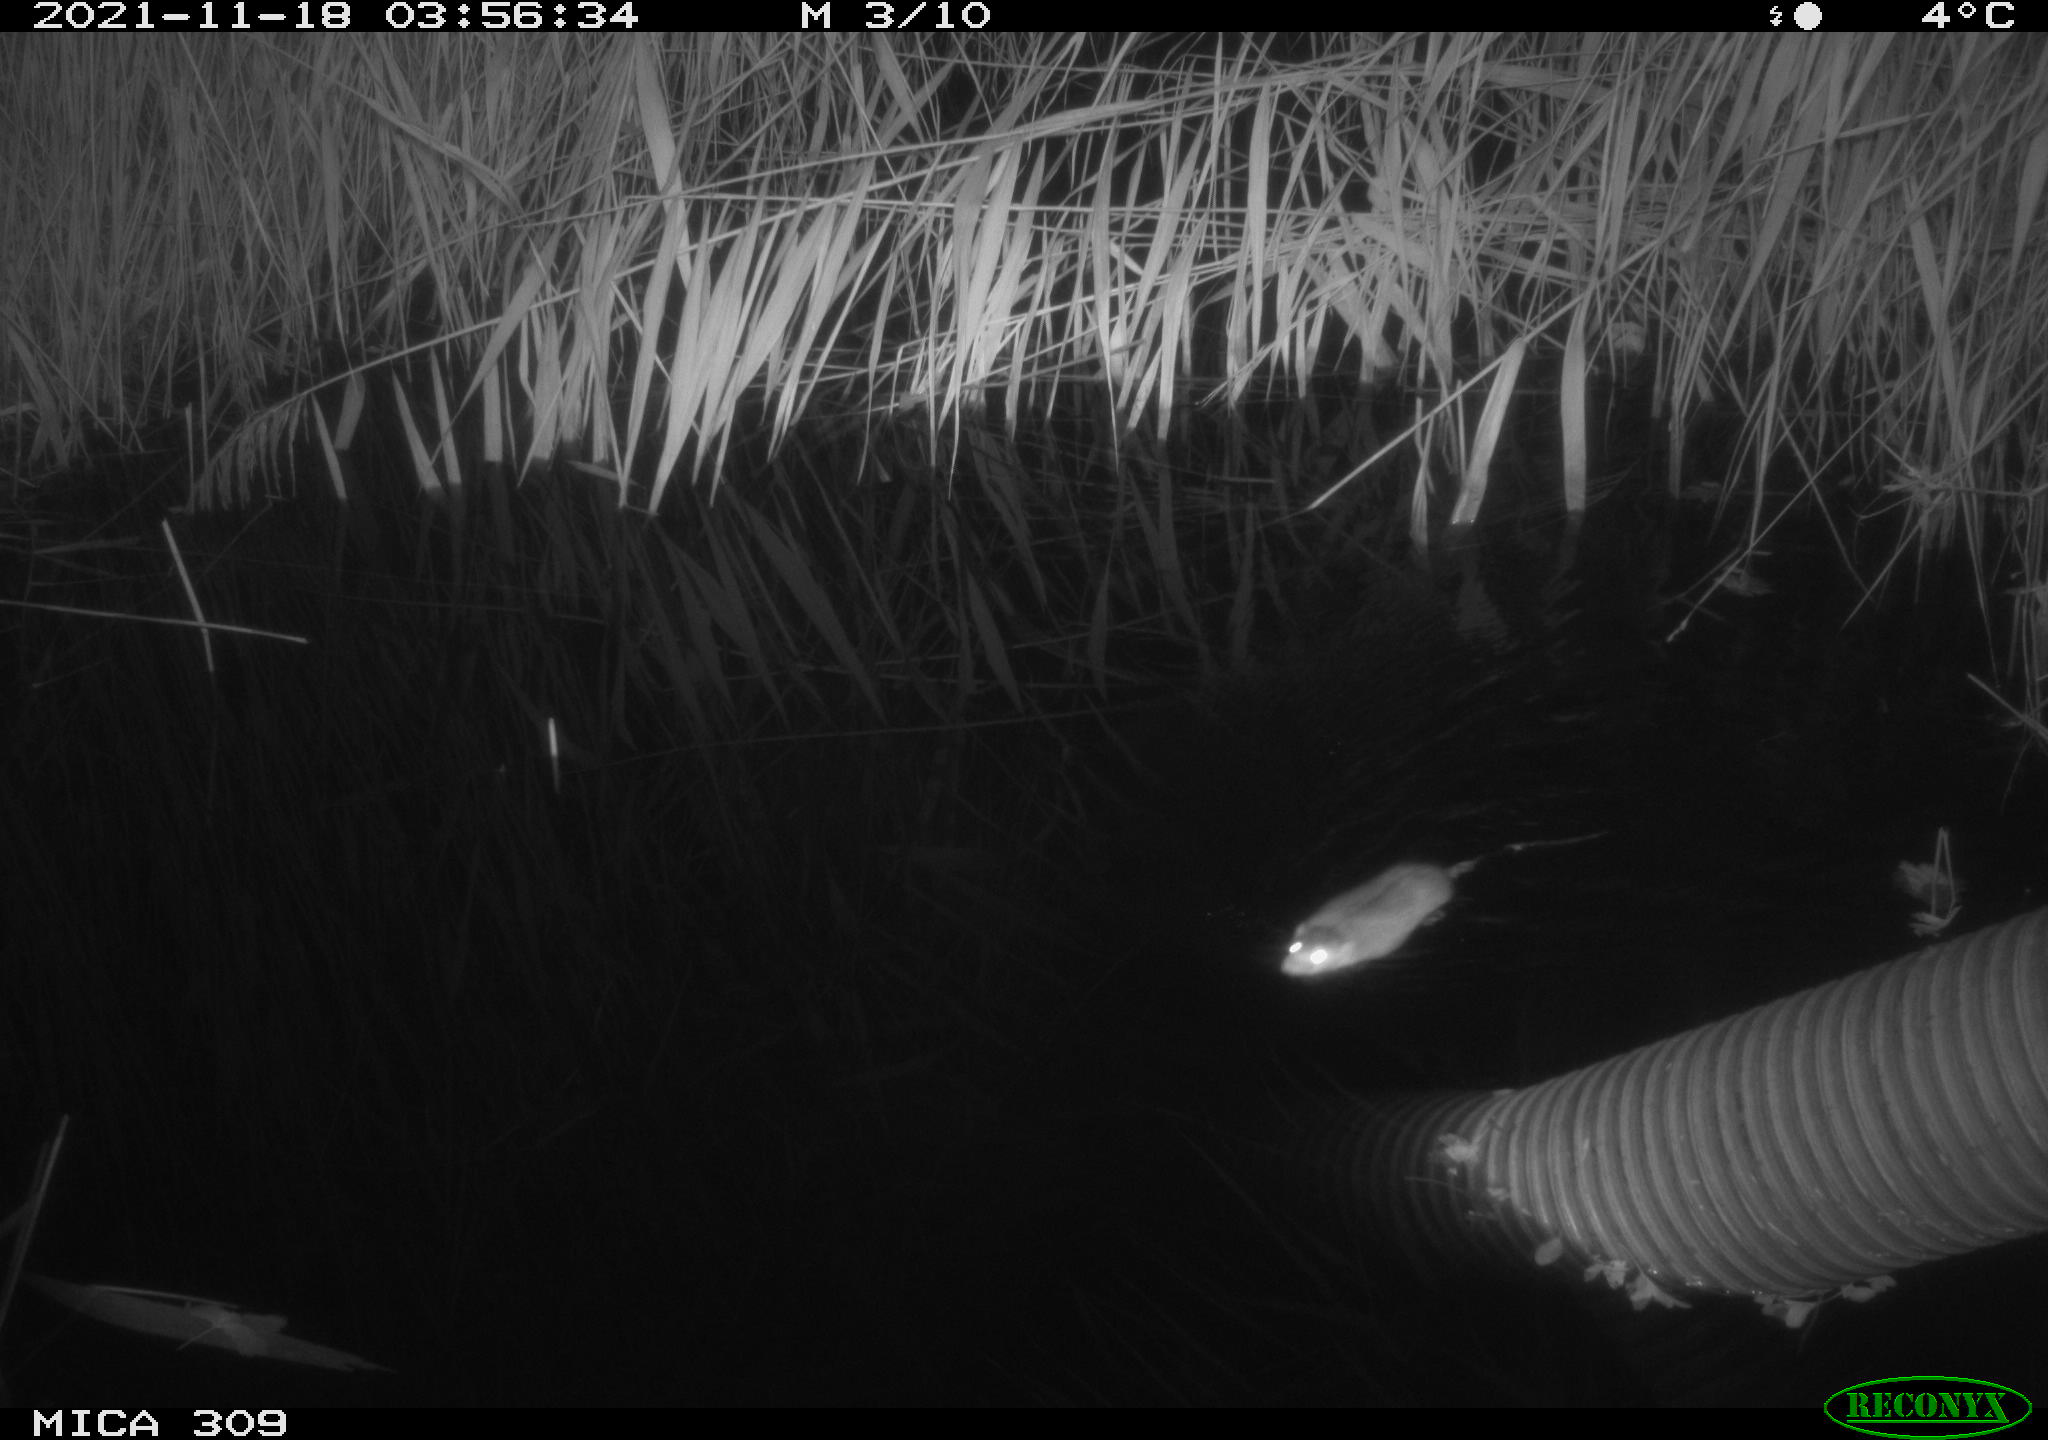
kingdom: Animalia
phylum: Chordata
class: Mammalia
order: Rodentia
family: Muridae
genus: Rattus
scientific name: Rattus norvegicus
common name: Brown rat
